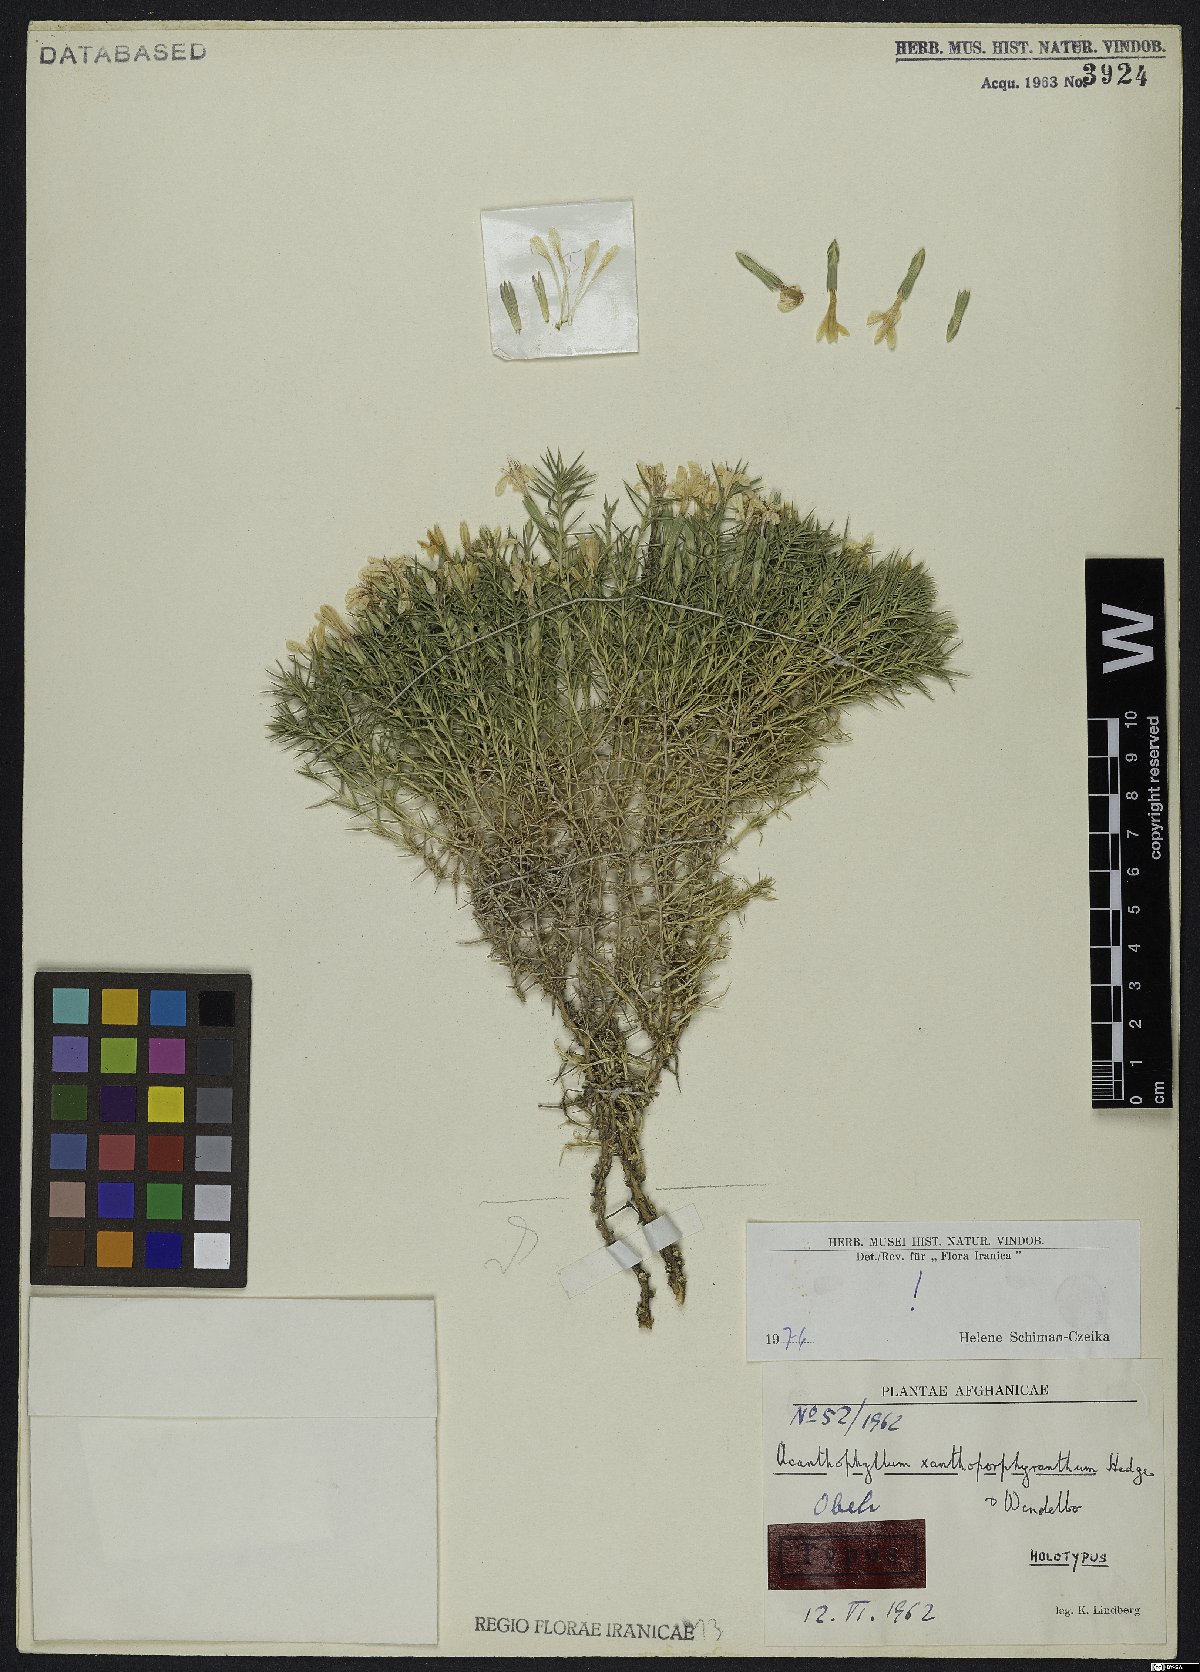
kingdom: Plantae
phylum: Tracheophyta
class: Magnoliopsida
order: Caryophyllales
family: Caryophyllaceae
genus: Acanthophyllum
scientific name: Acanthophyllum xanthoporphyranthum
